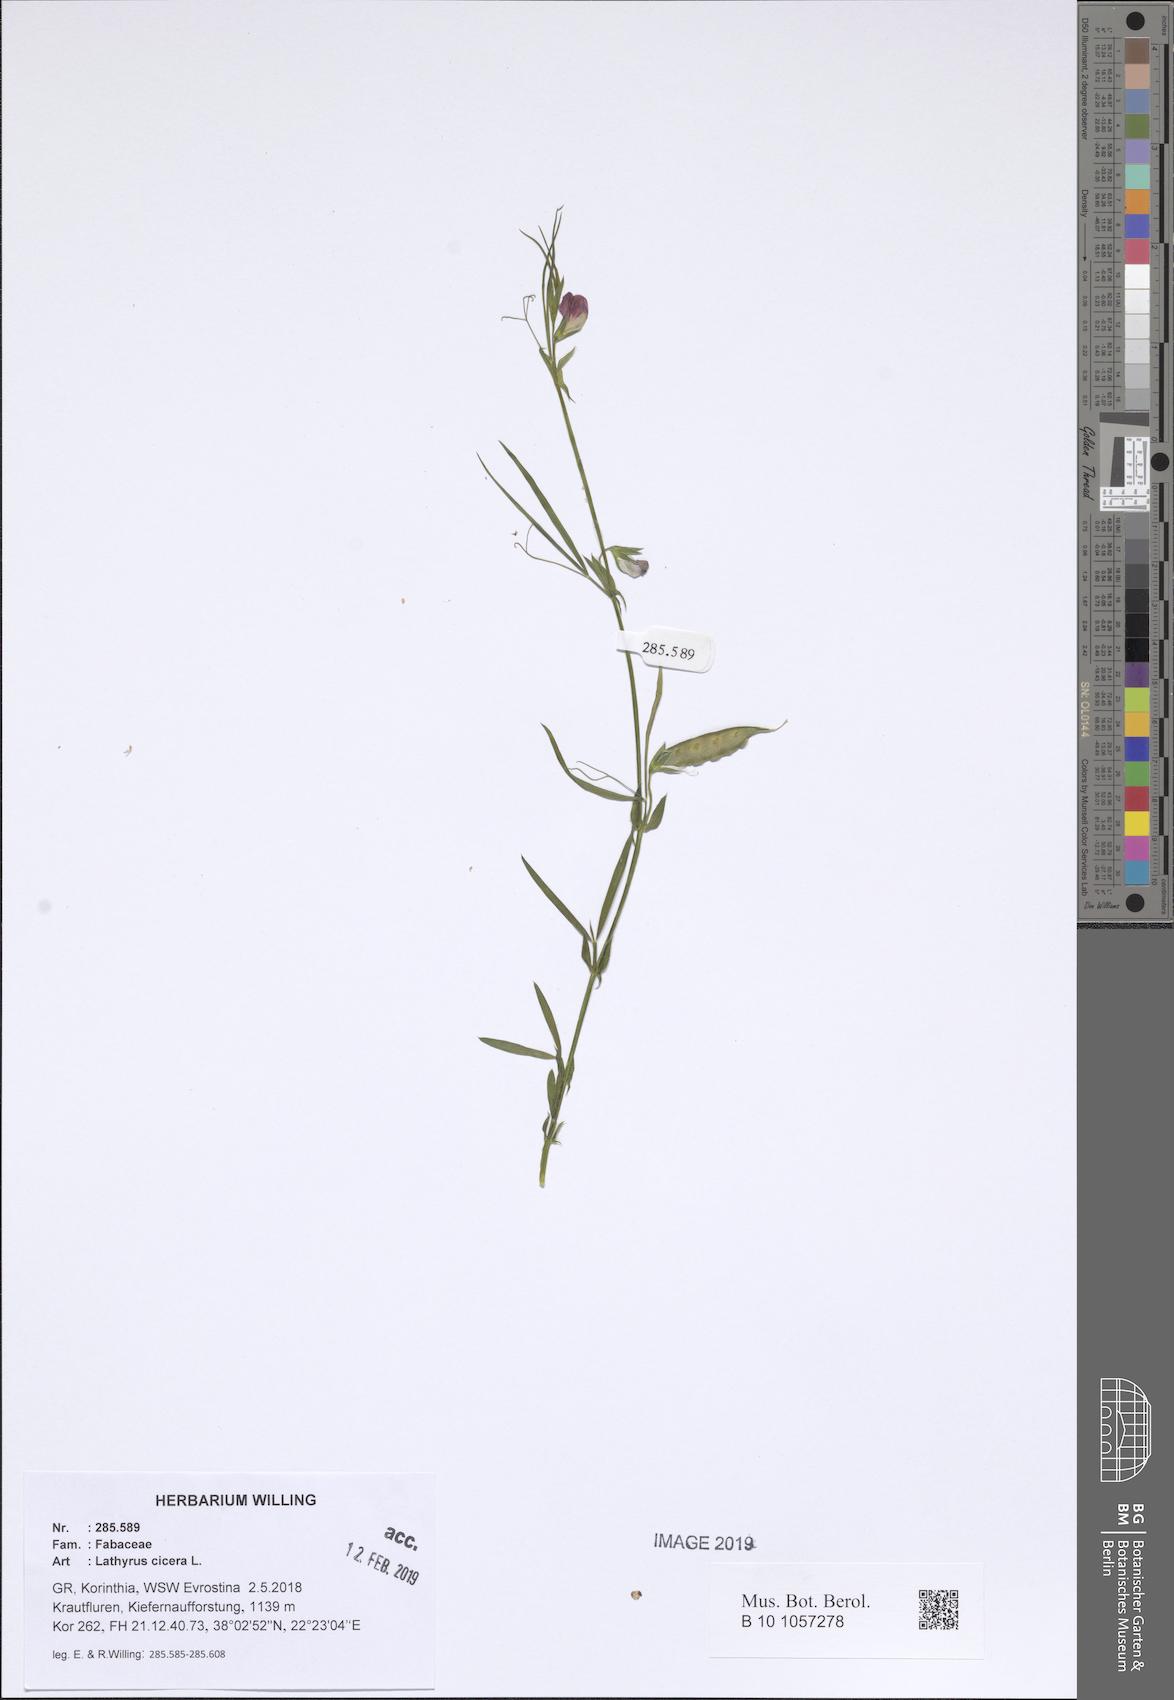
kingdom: Plantae
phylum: Tracheophyta
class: Magnoliopsida
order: Fabales
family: Fabaceae
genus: Lathyrus
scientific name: Lathyrus cicera
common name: Red vetchling
